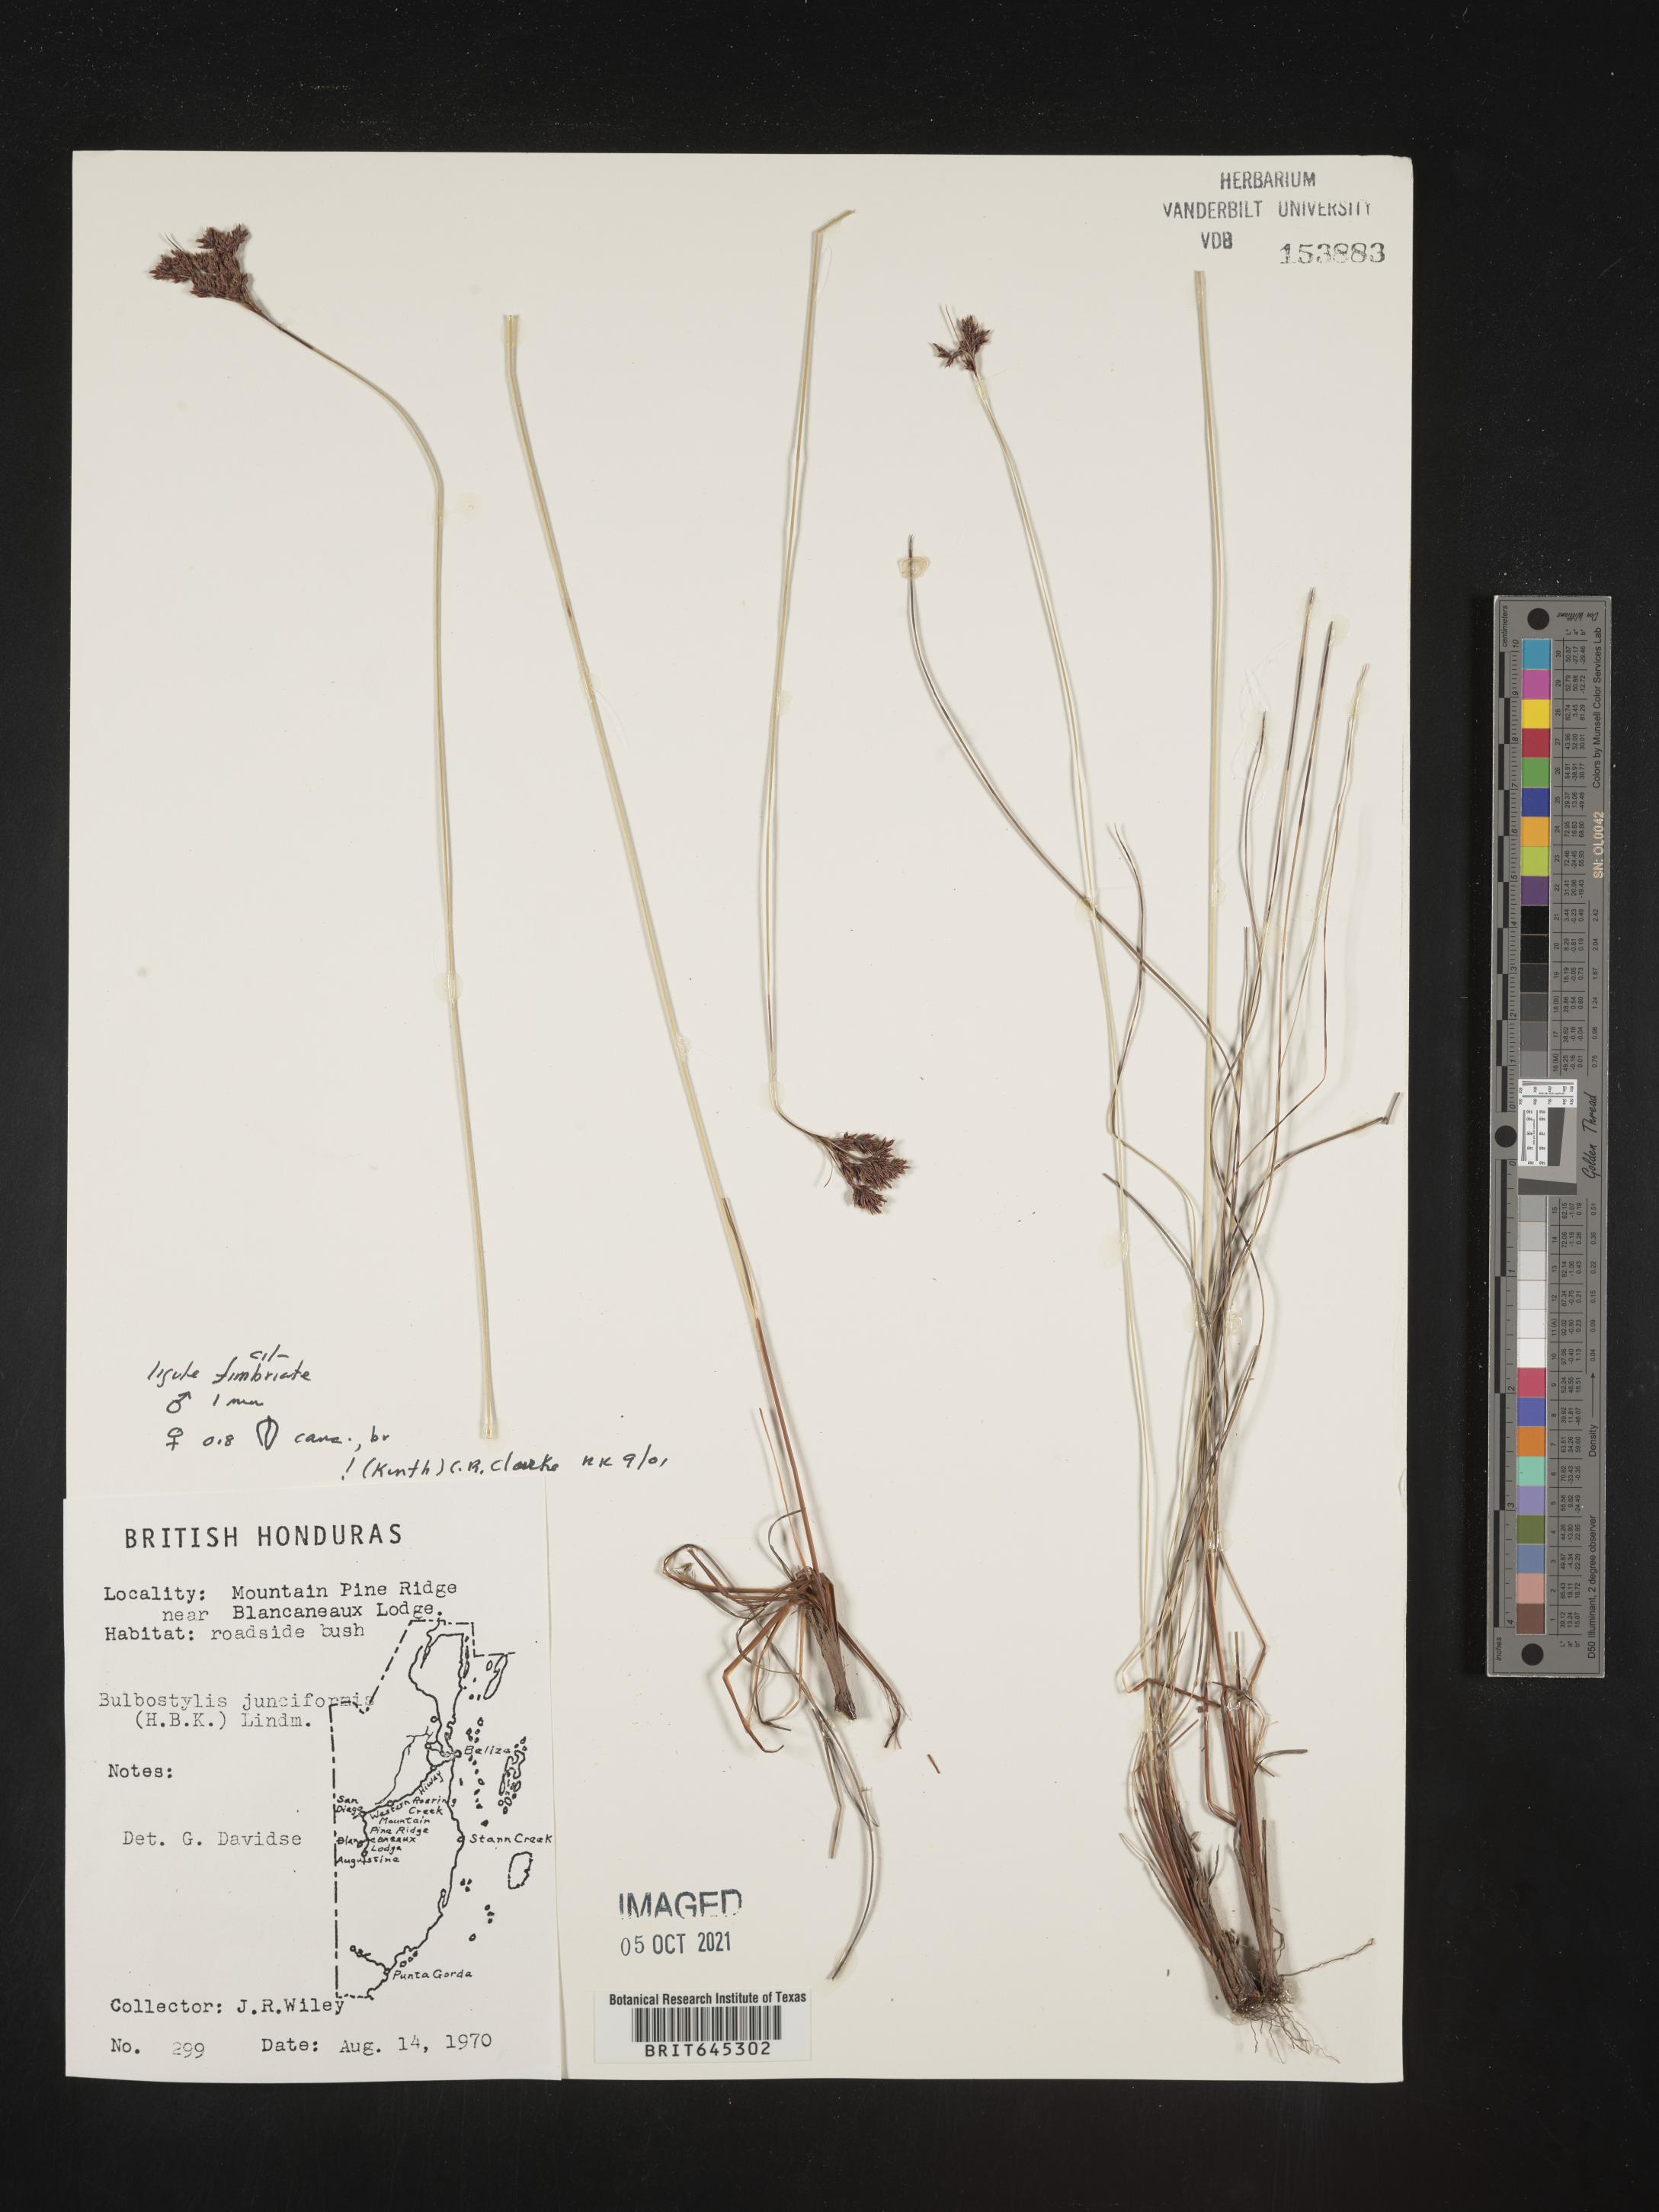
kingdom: Plantae
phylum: Tracheophyta
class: Liliopsida
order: Poales
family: Cyperaceae
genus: Bulbostylis
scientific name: Bulbostylis junciformis
